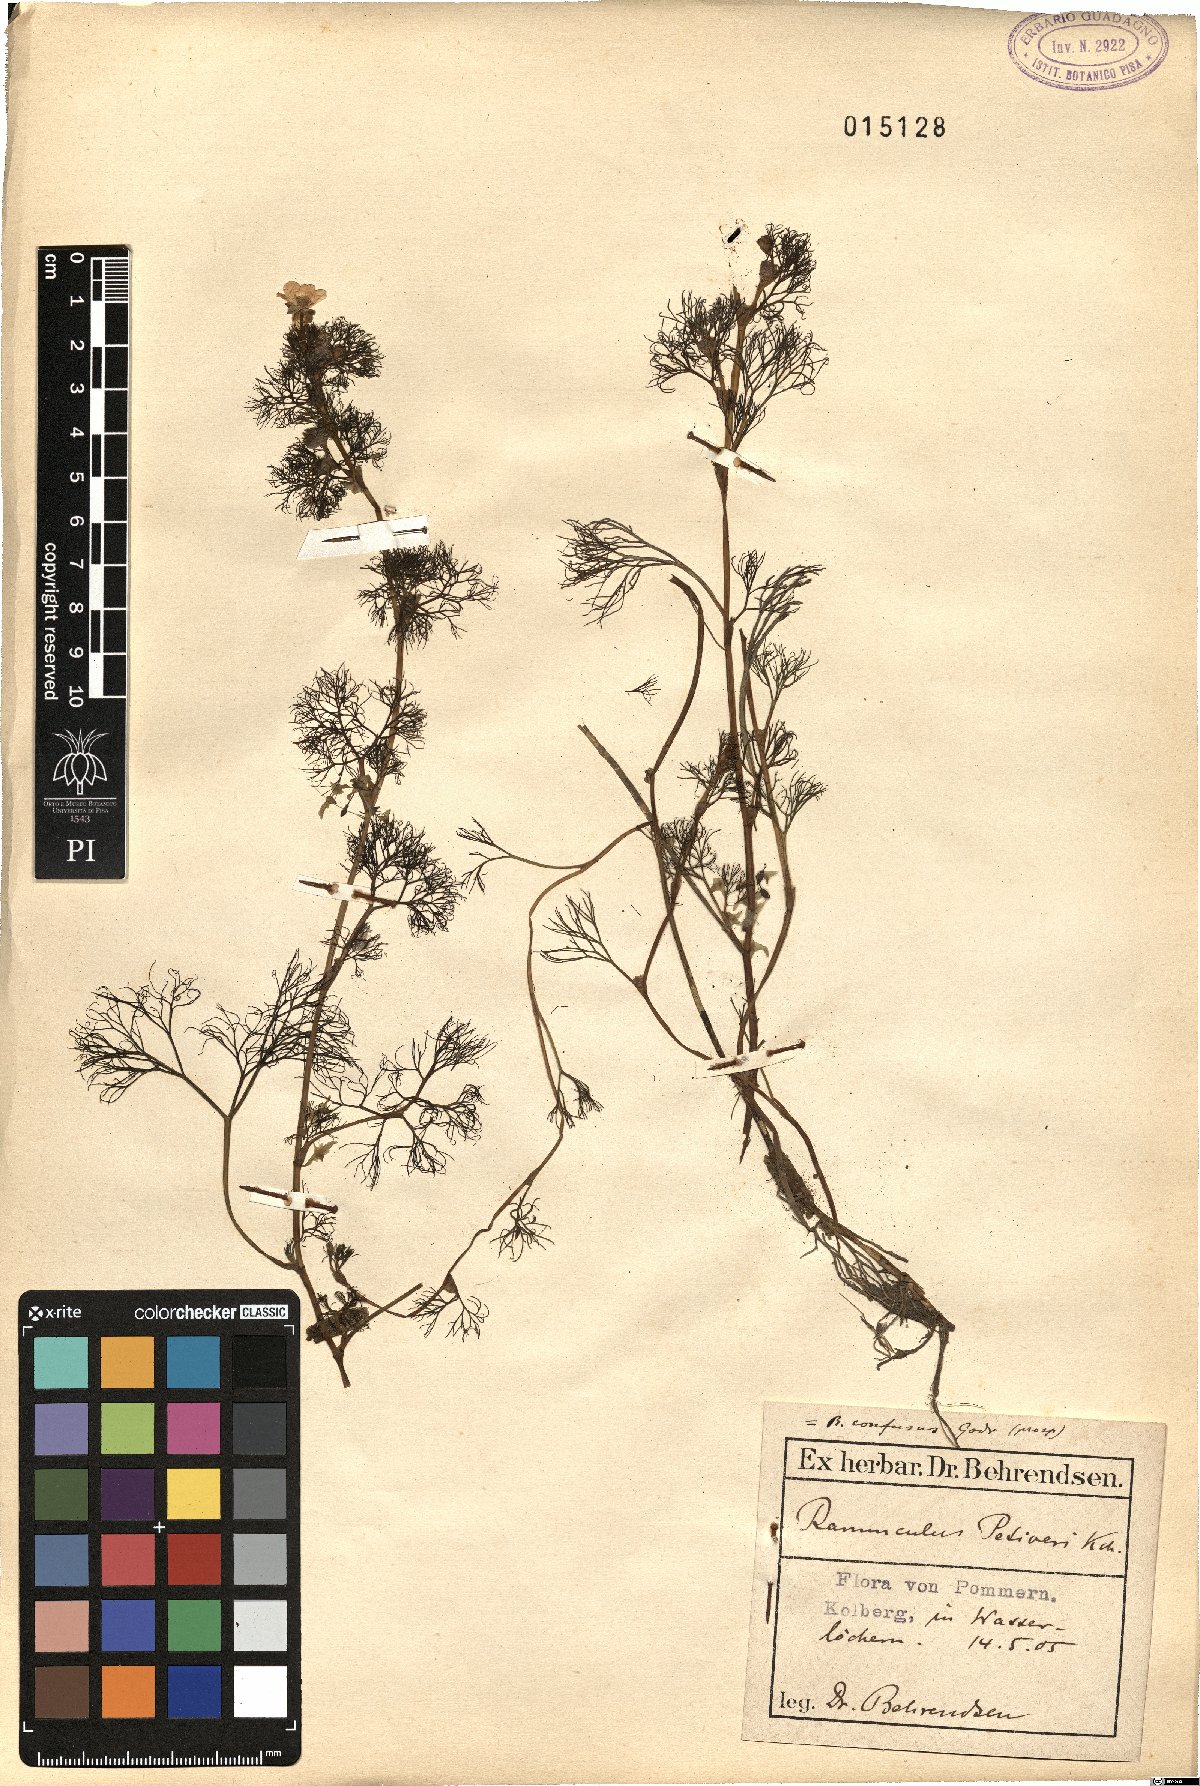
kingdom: Plantae
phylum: Tracheophyta
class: Magnoliopsida
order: Ranunculales
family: Ranunculaceae
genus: Ranunculus
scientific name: Ranunculus tripartitus
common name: Three-lobed crowfoot
